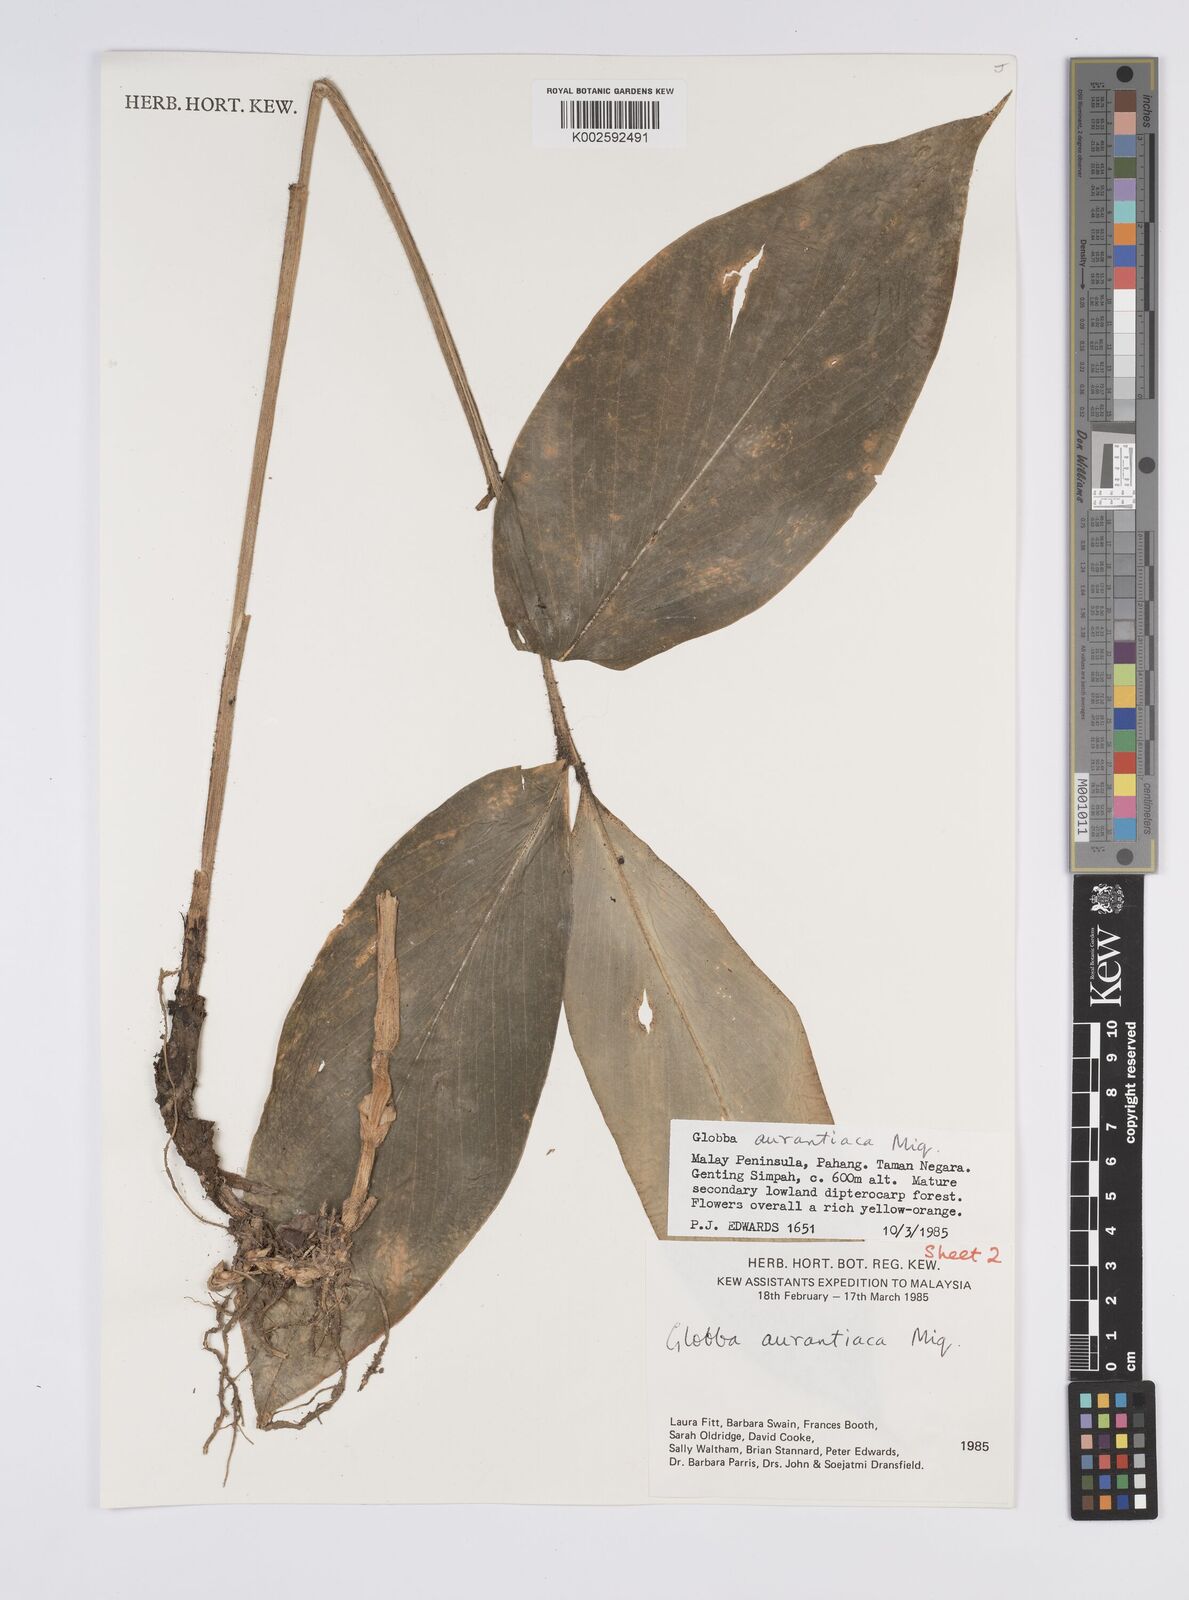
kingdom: Plantae
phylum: Tracheophyta
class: Liliopsida
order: Zingiberales
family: Zingiberaceae
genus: Globba
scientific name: Globba aurantiaca
